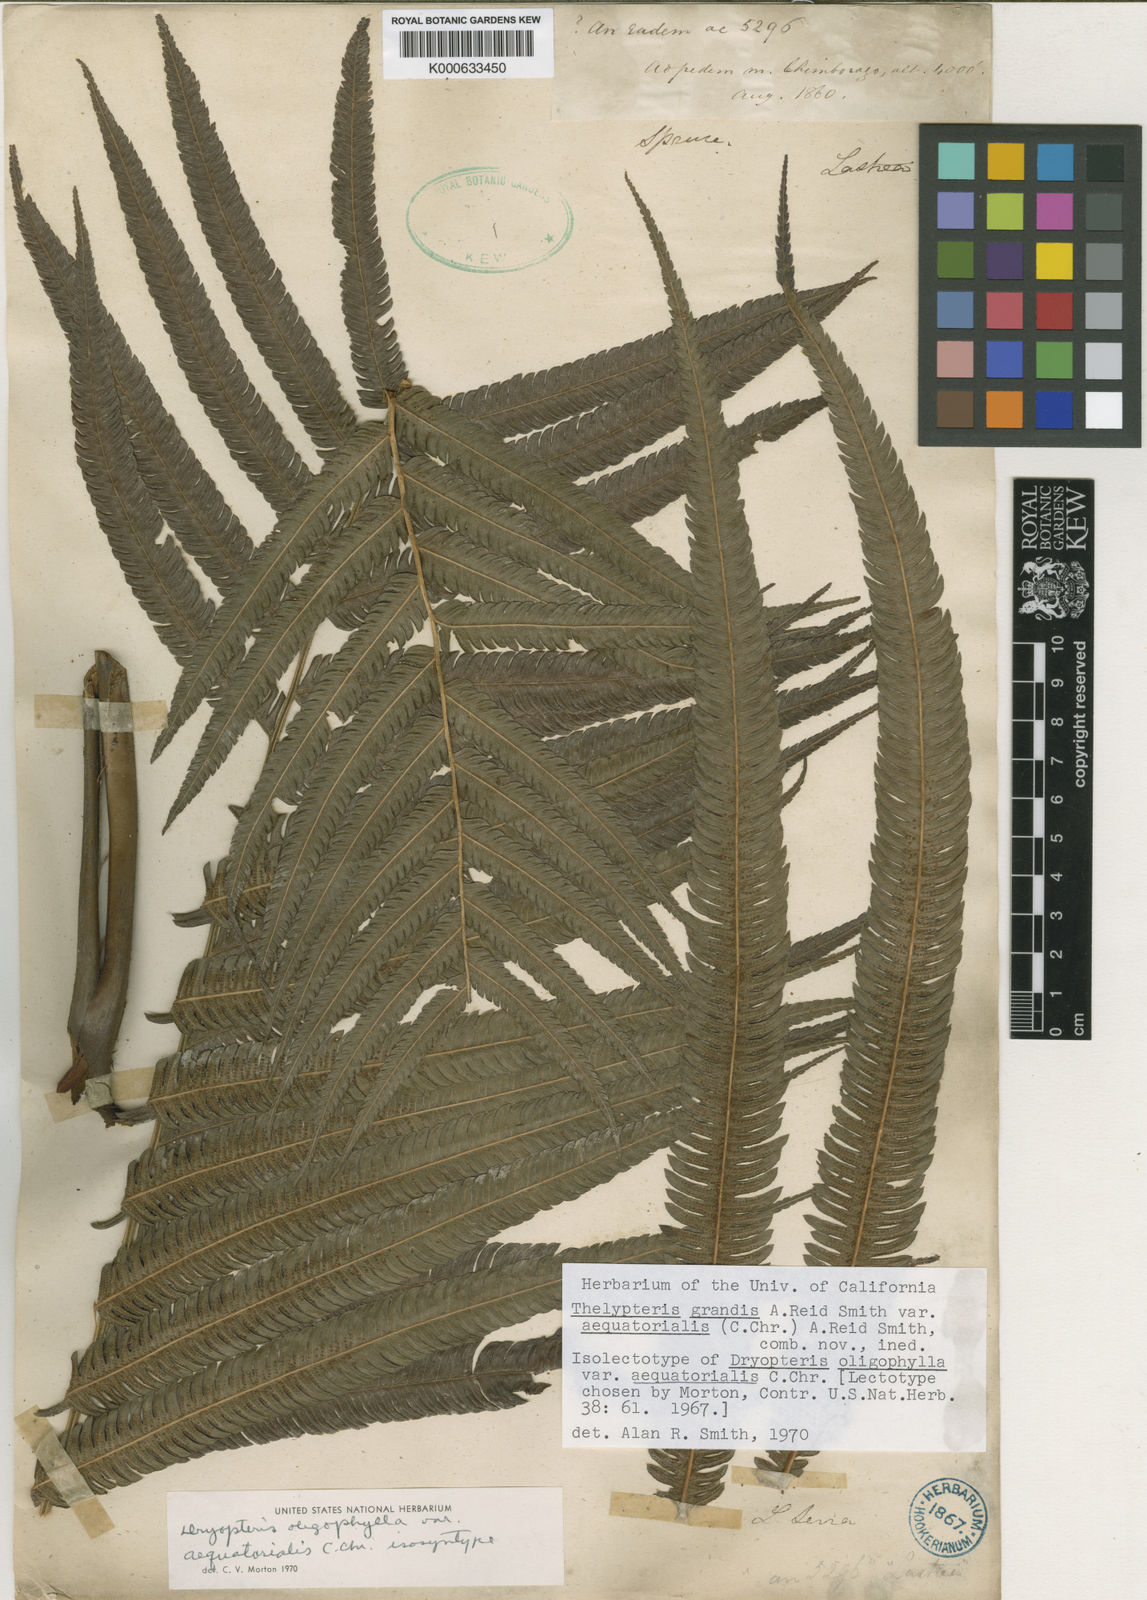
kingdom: Plantae
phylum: Tracheophyta
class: Polypodiopsida
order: Polypodiales
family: Thelypteridaceae
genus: Christella
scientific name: Christella
